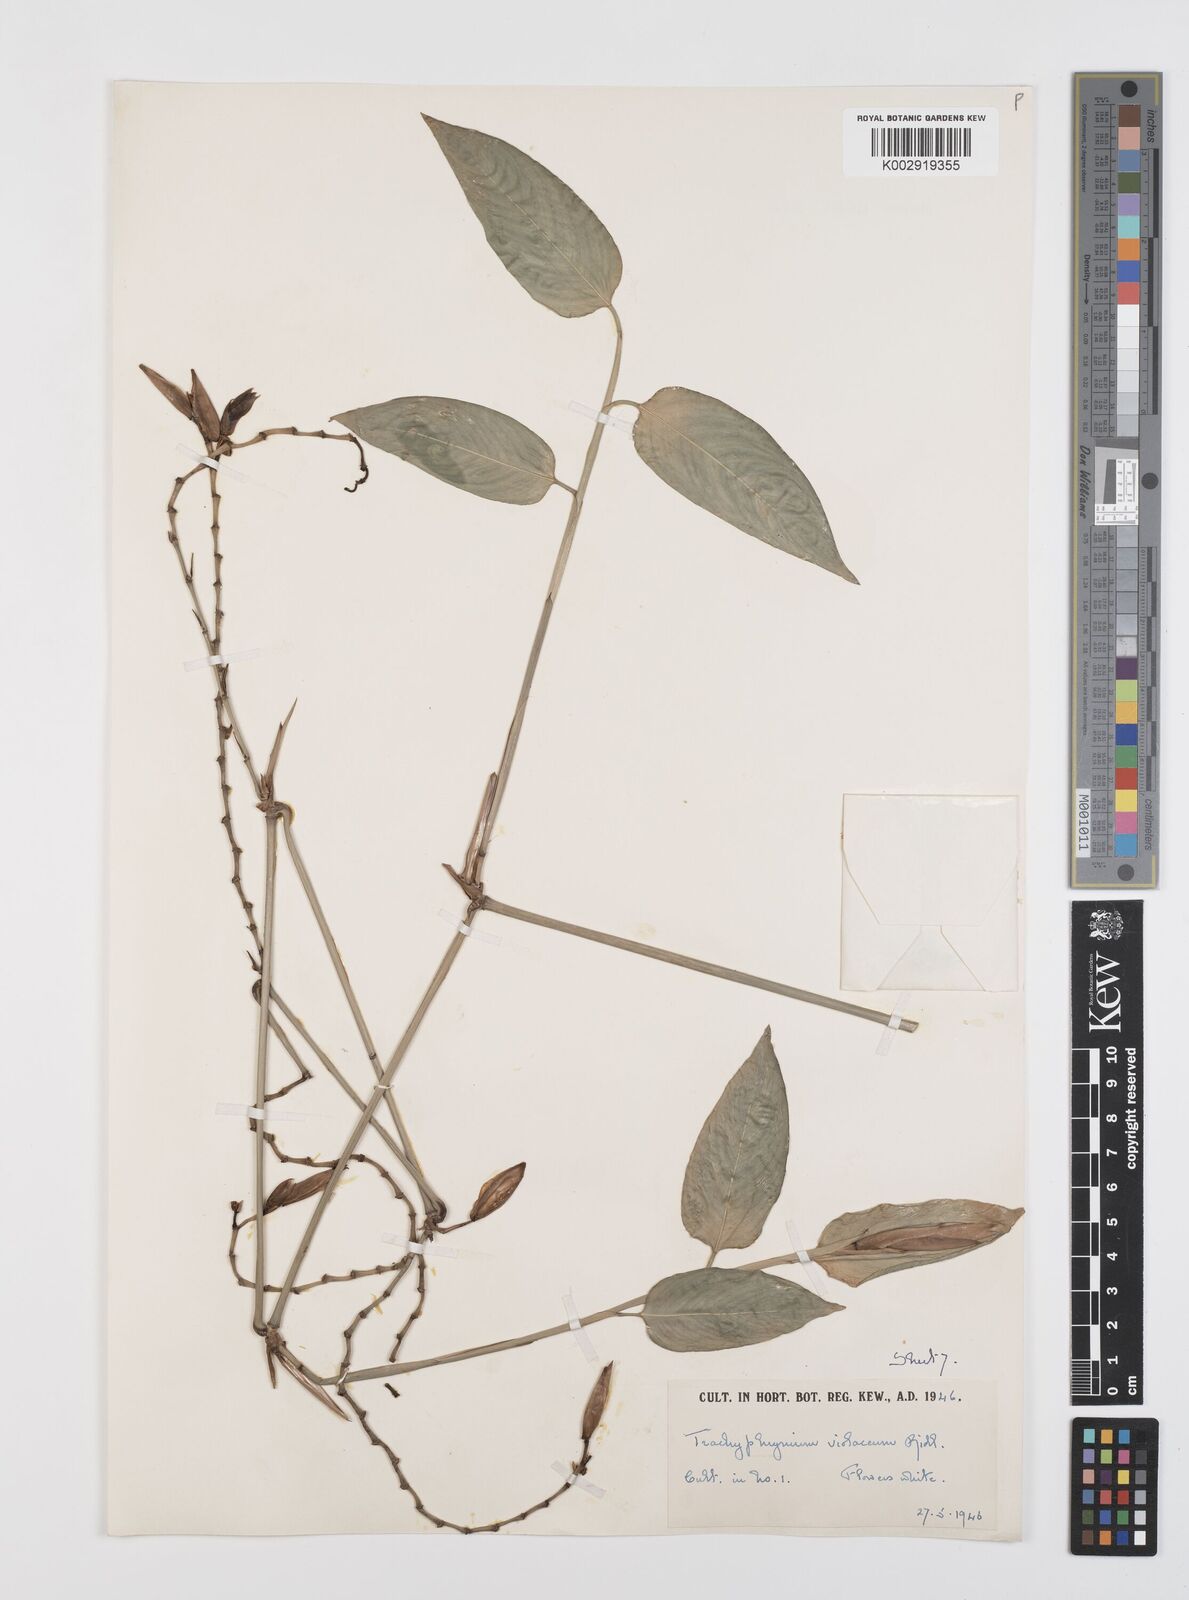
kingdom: Plantae
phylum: Tracheophyta
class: Liliopsida
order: Zingiberales
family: Marantaceae
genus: Hypselodelphys
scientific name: Hypselodelphys poggeana
